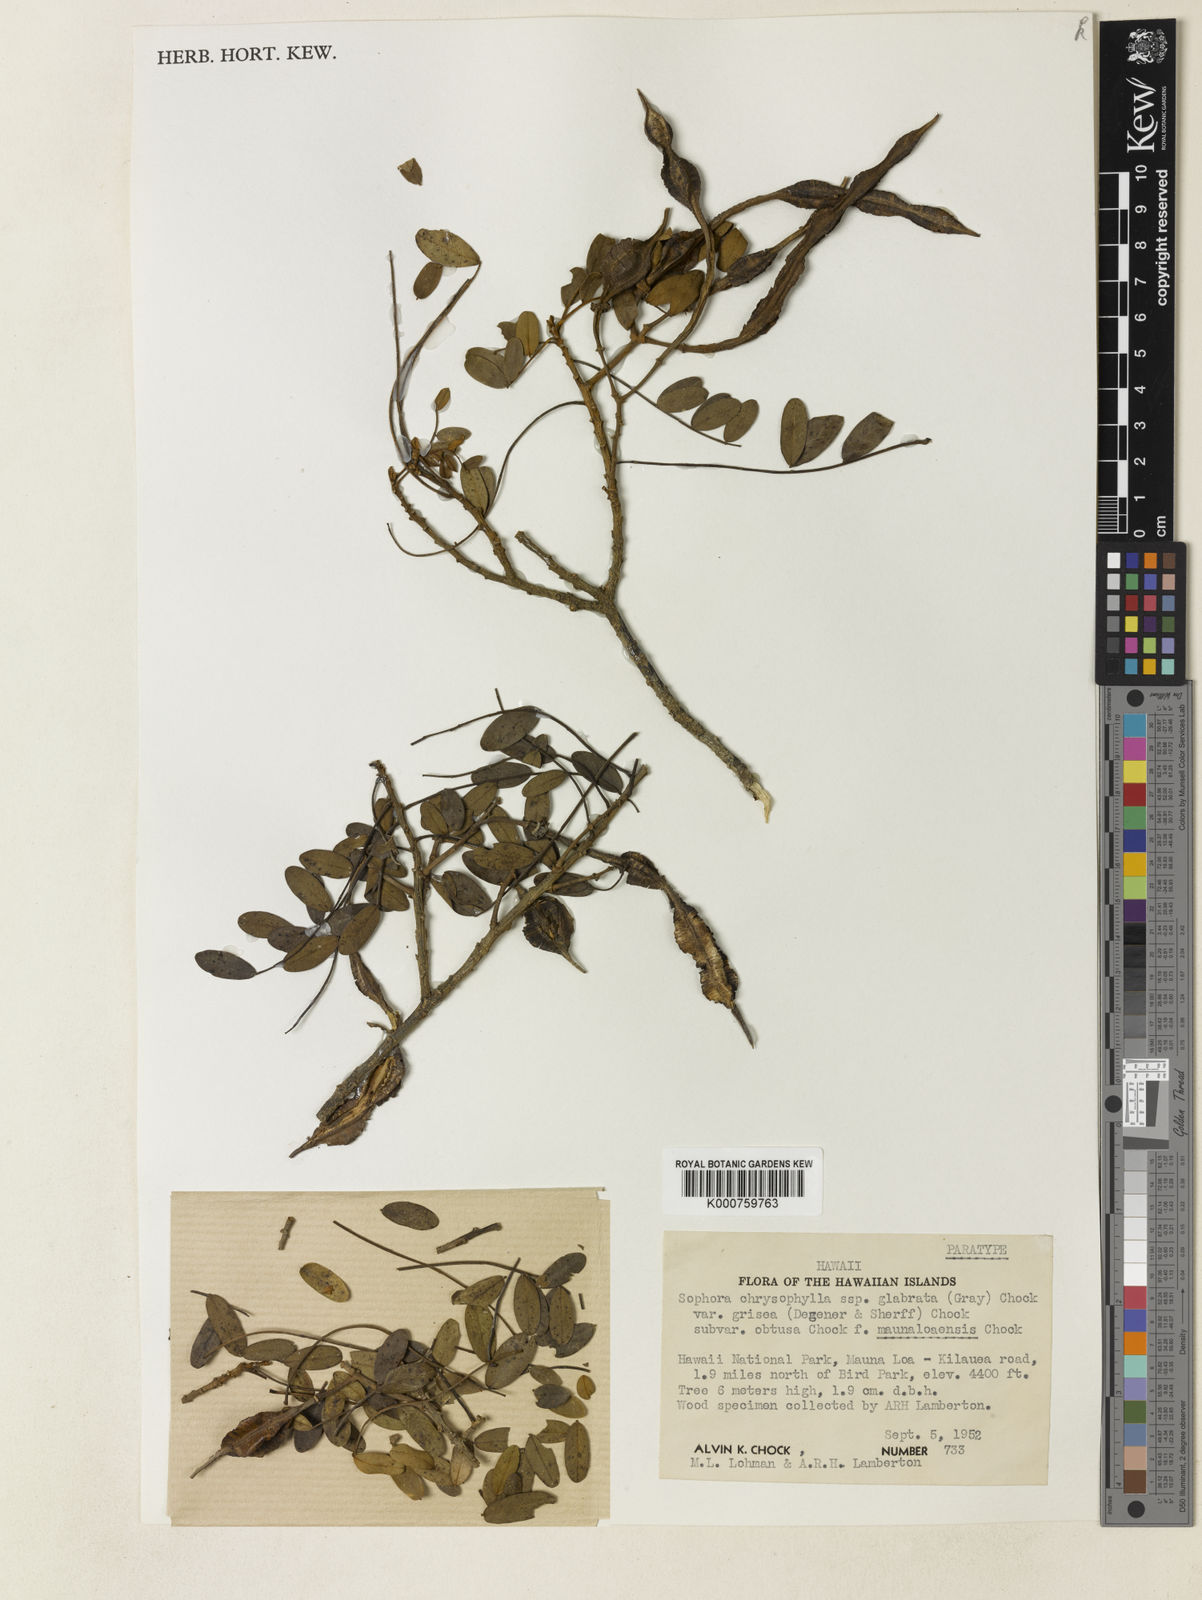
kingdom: Plantae
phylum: Tracheophyta
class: Magnoliopsida
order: Fabales
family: Fabaceae
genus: Sophora
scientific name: Sophora chrysophylla
